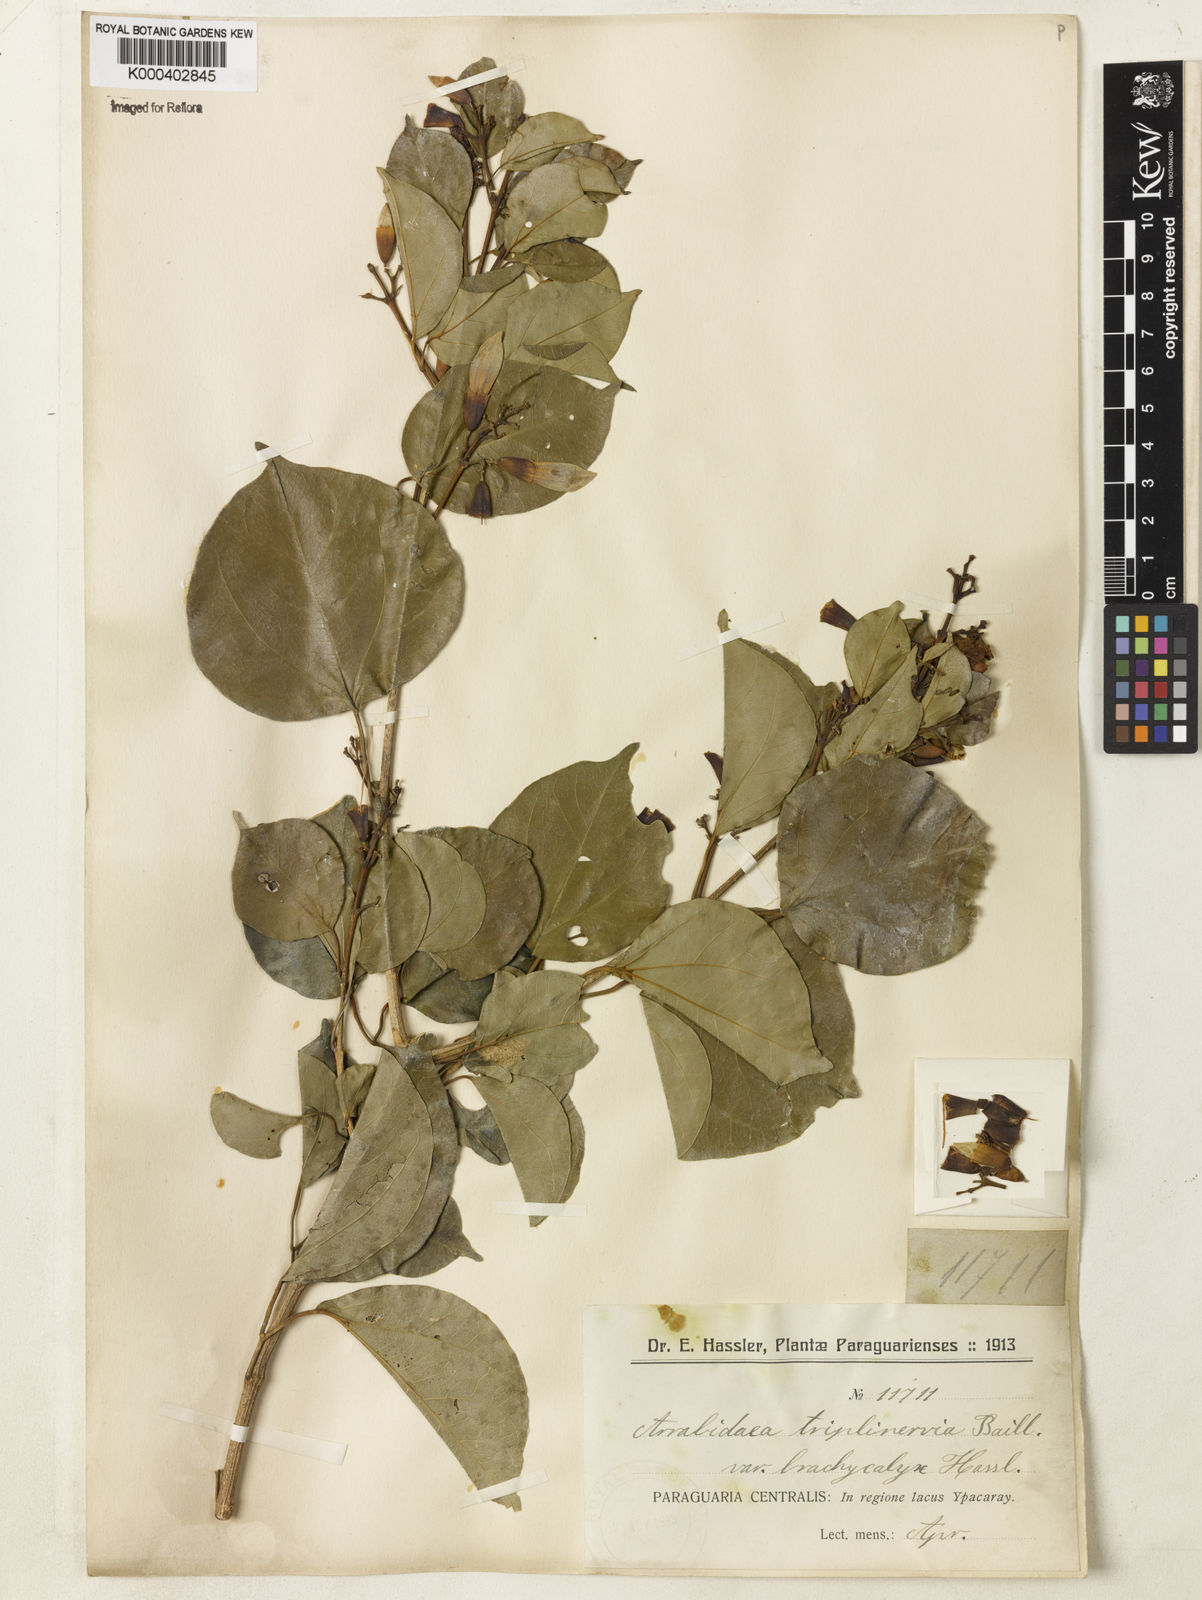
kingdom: Plantae
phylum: Tracheophyta
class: Magnoliopsida
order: Lamiales
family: Bignoniaceae
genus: Fridericia
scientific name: Fridericia triplinervia
